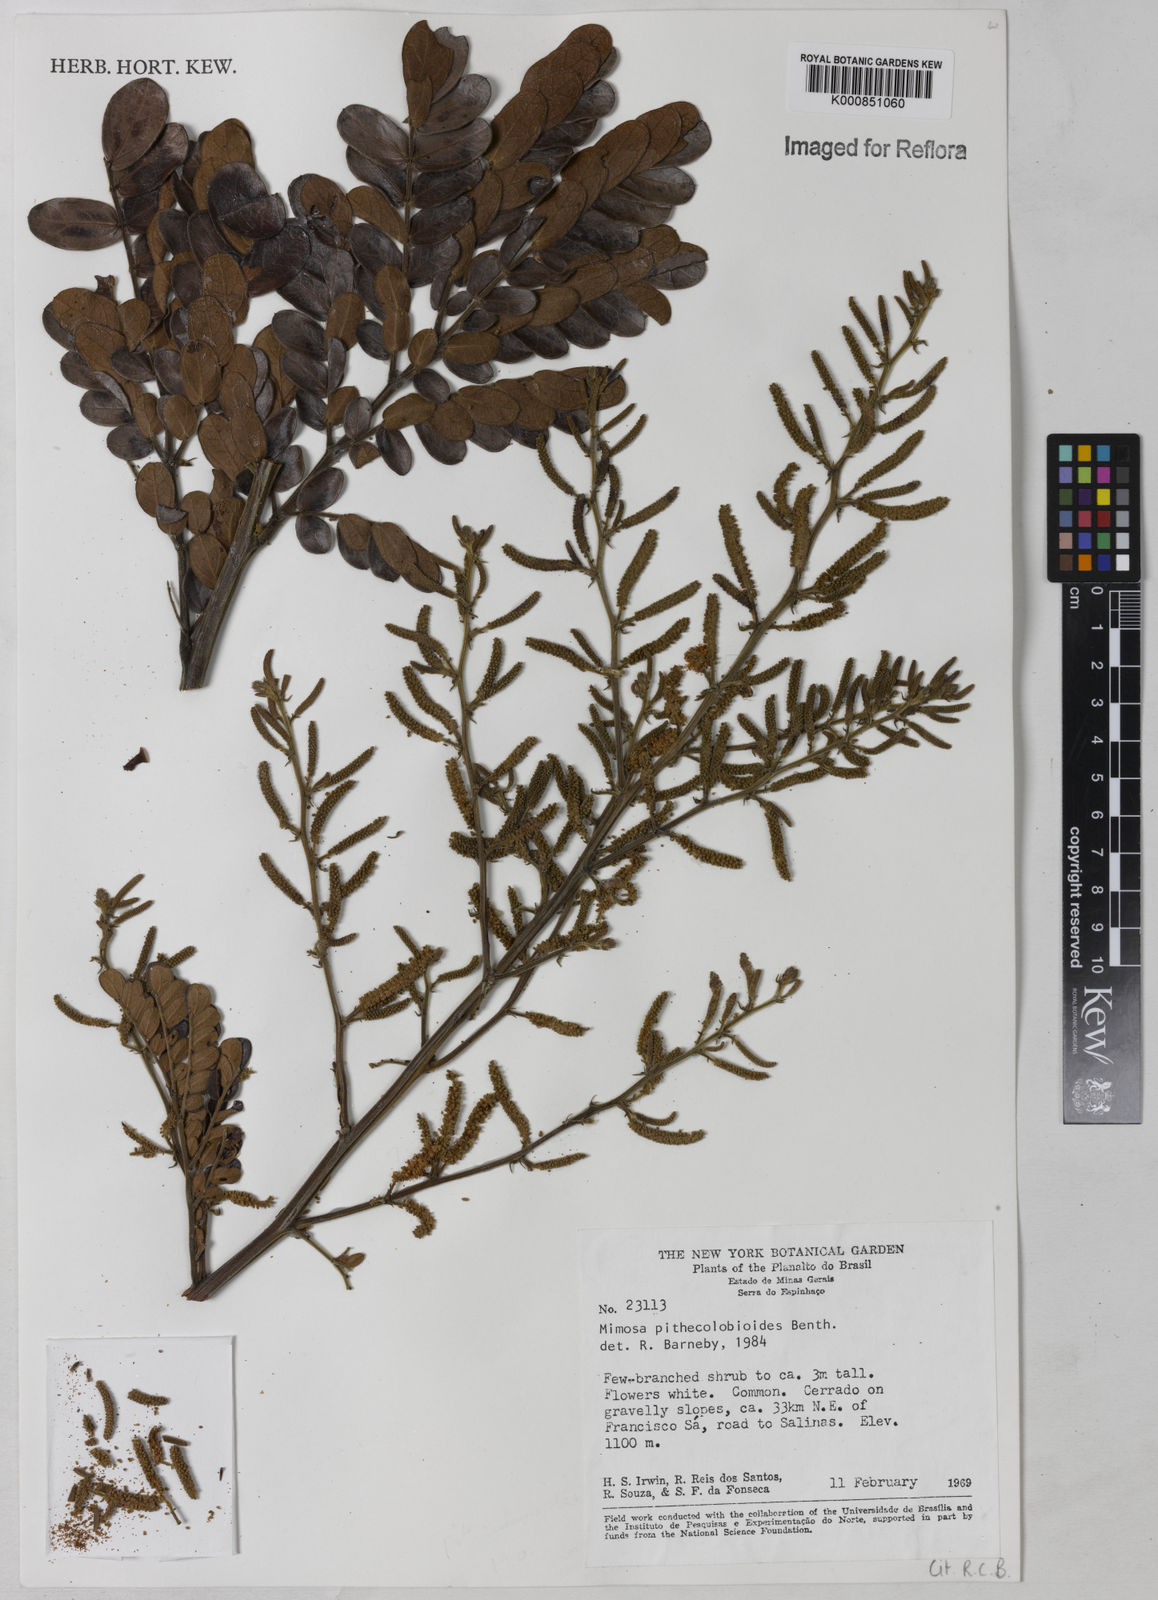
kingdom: Plantae
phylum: Tracheophyta
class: Magnoliopsida
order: Fabales
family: Fabaceae
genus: Mimosa
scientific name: Mimosa pithecolobioides
